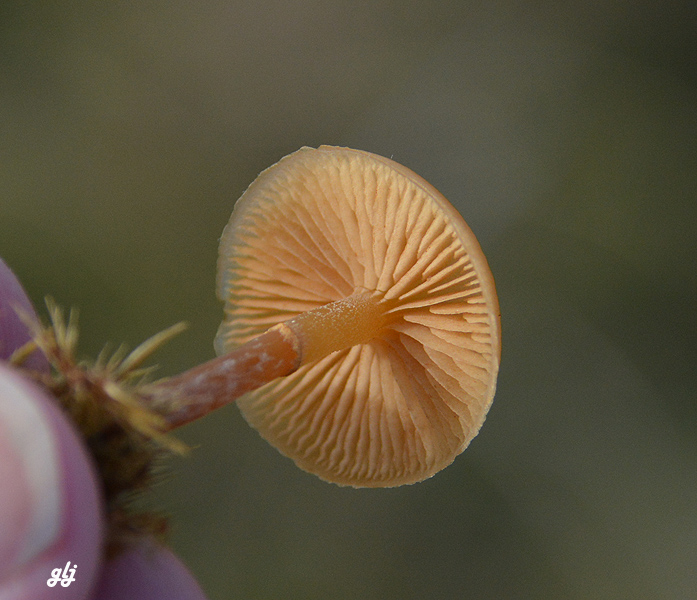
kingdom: Fungi
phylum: Basidiomycota
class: Agaricomycetes
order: Agaricales
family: Hymenogastraceae
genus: Galerina
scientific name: Galerina
